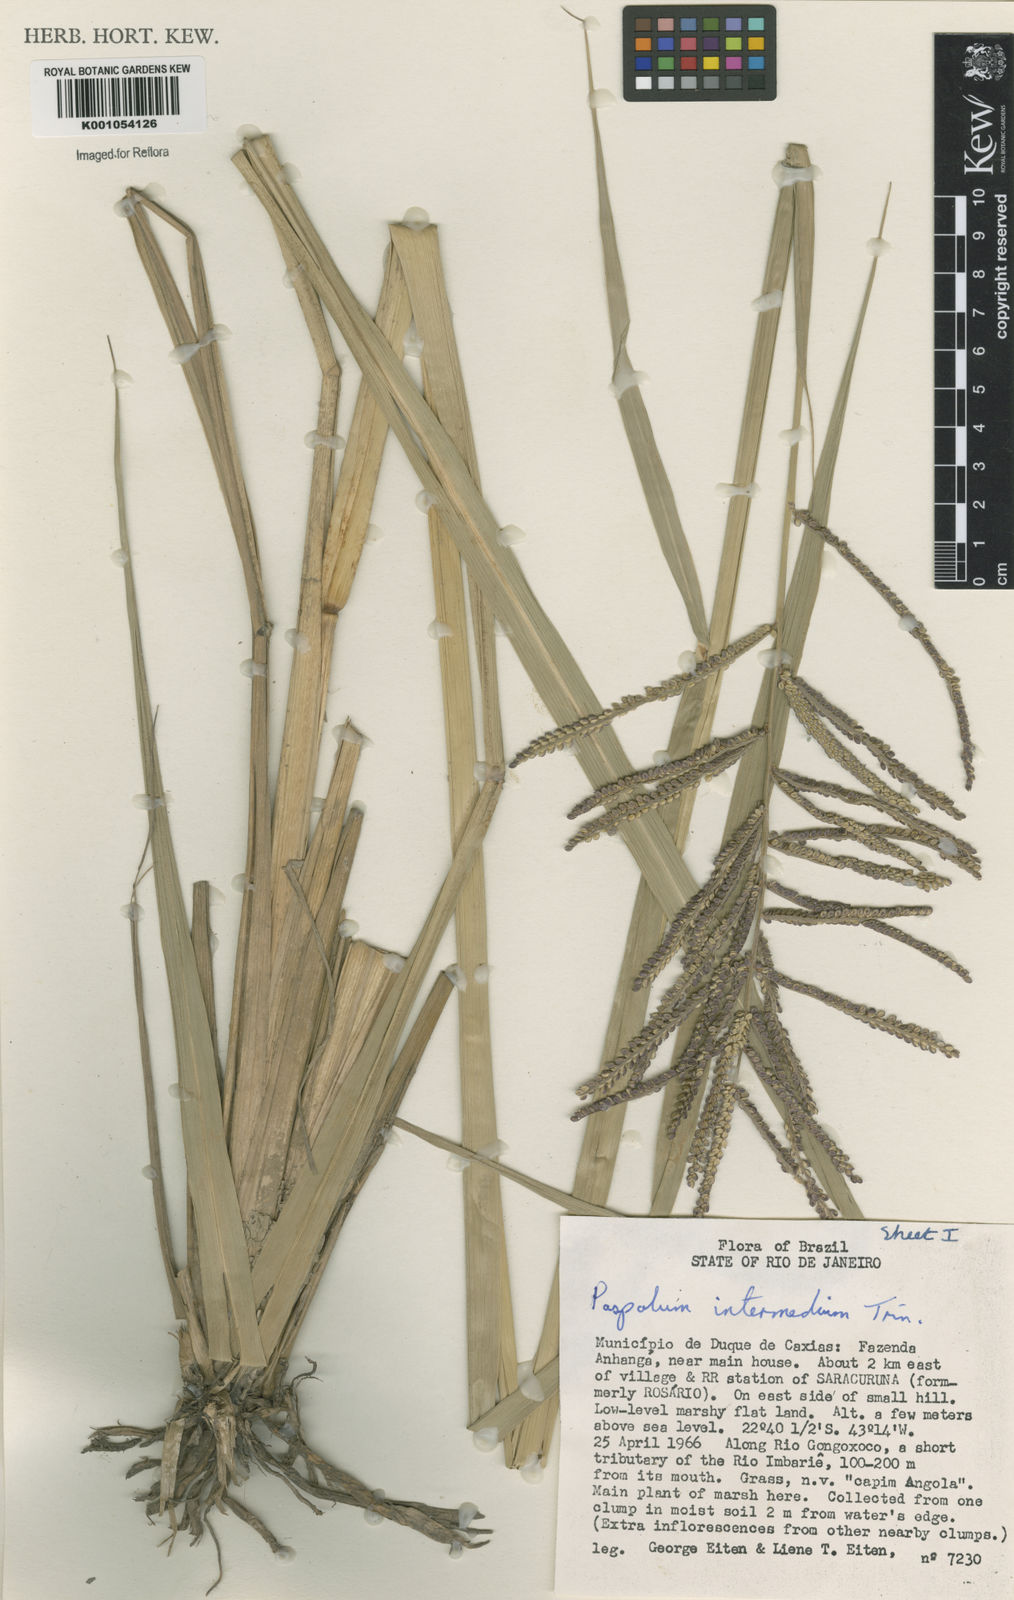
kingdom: Plantae
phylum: Tracheophyta
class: Liliopsida
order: Poales
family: Poaceae
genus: Paspalum
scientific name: Paspalum
